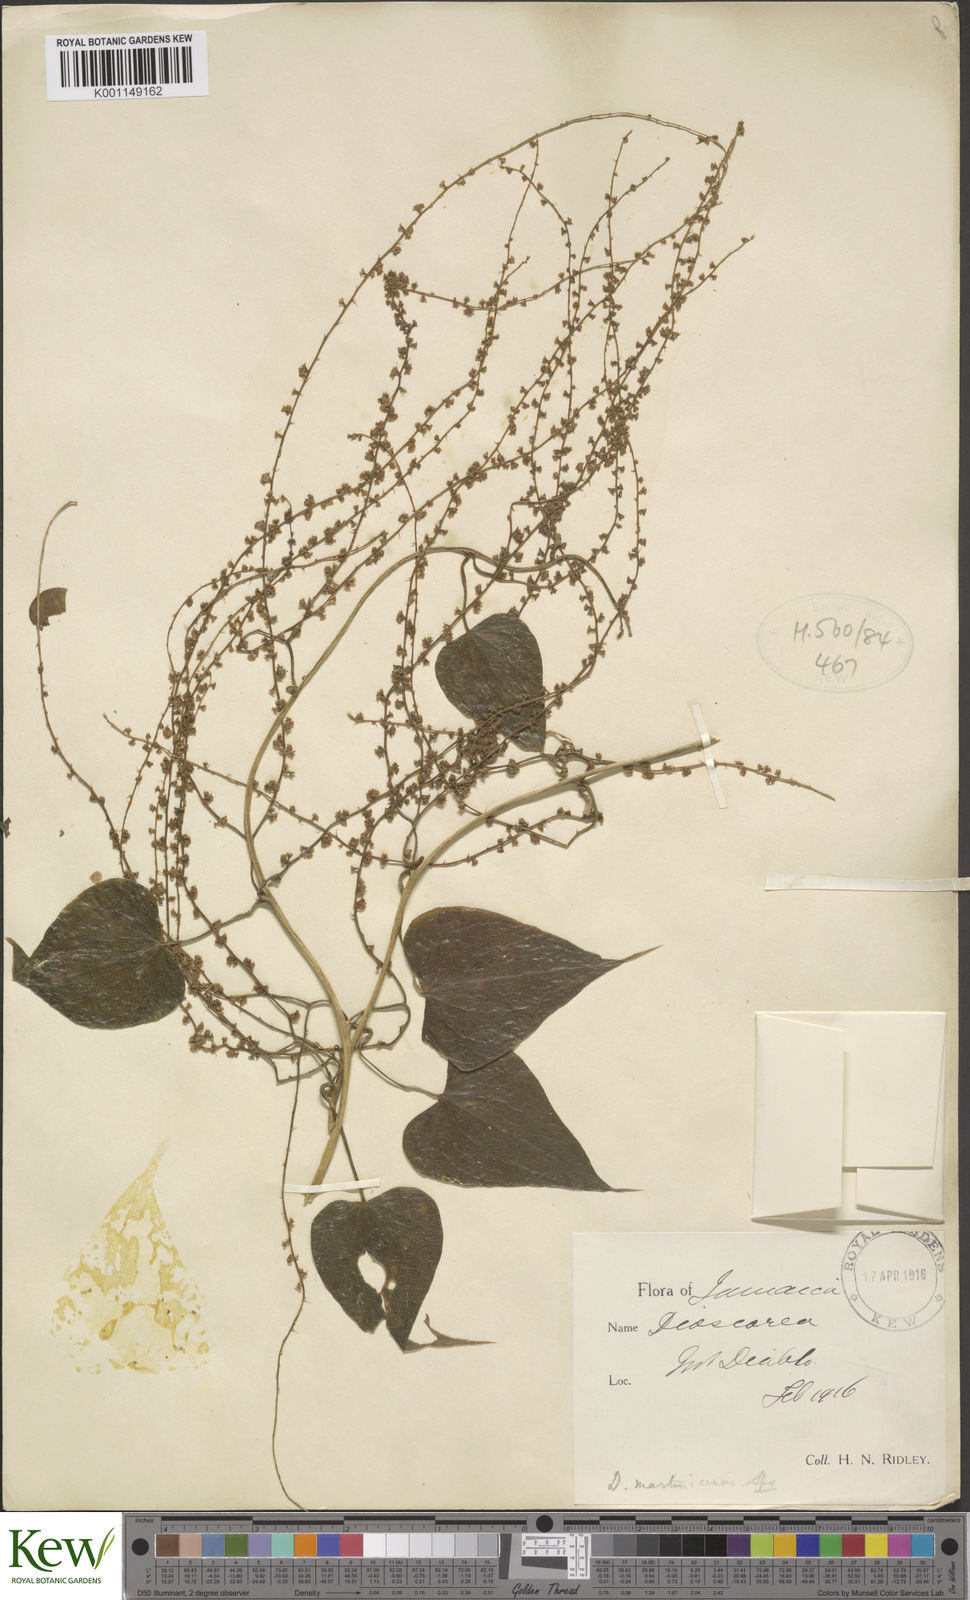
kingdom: Plantae
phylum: Tracheophyta
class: Liliopsida
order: Dioscoreales
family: Dioscoreaceae
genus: Dioscorea
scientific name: Dioscorea polygonoides
